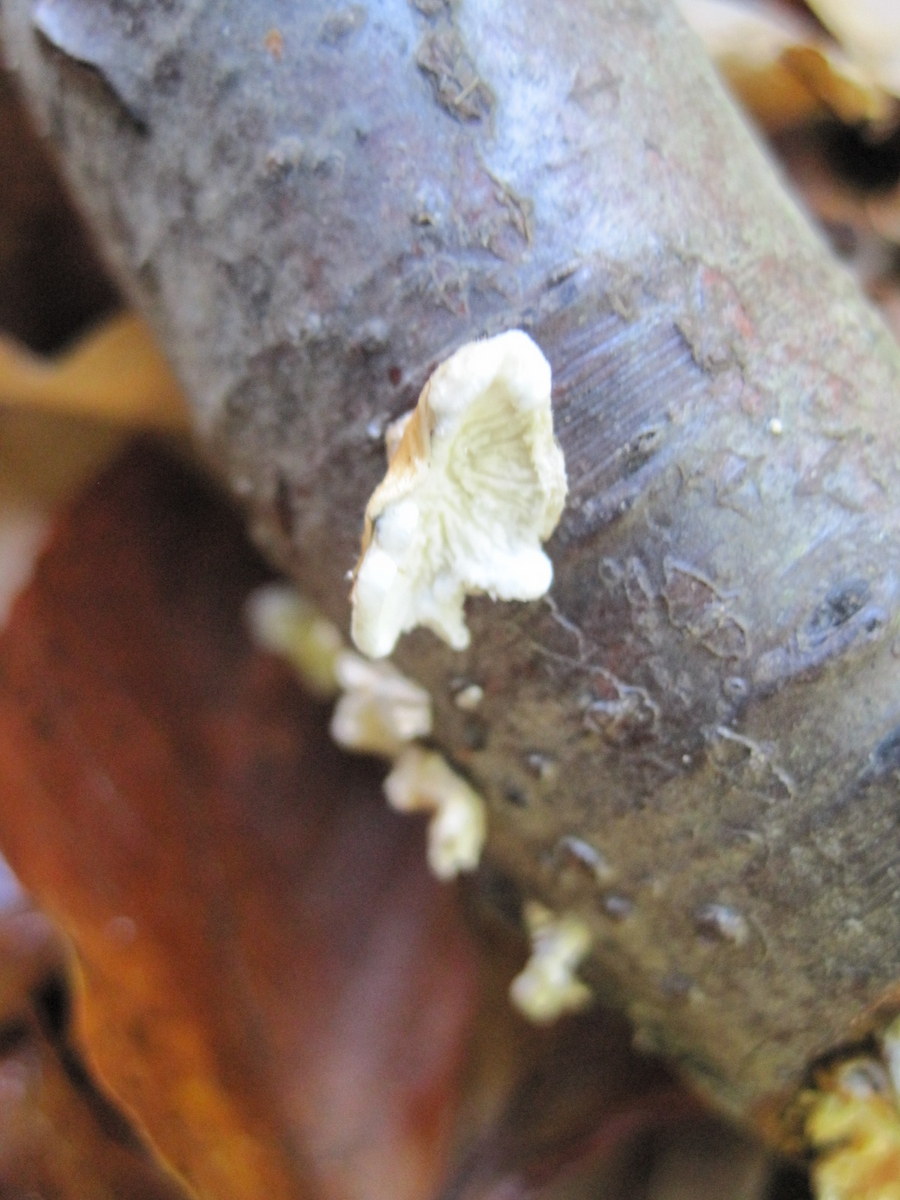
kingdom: Fungi
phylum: Basidiomycota
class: Agaricomycetes
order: Amylocorticiales
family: Amylocorticiaceae
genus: Plicaturopsis
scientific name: Plicaturopsis crispa
